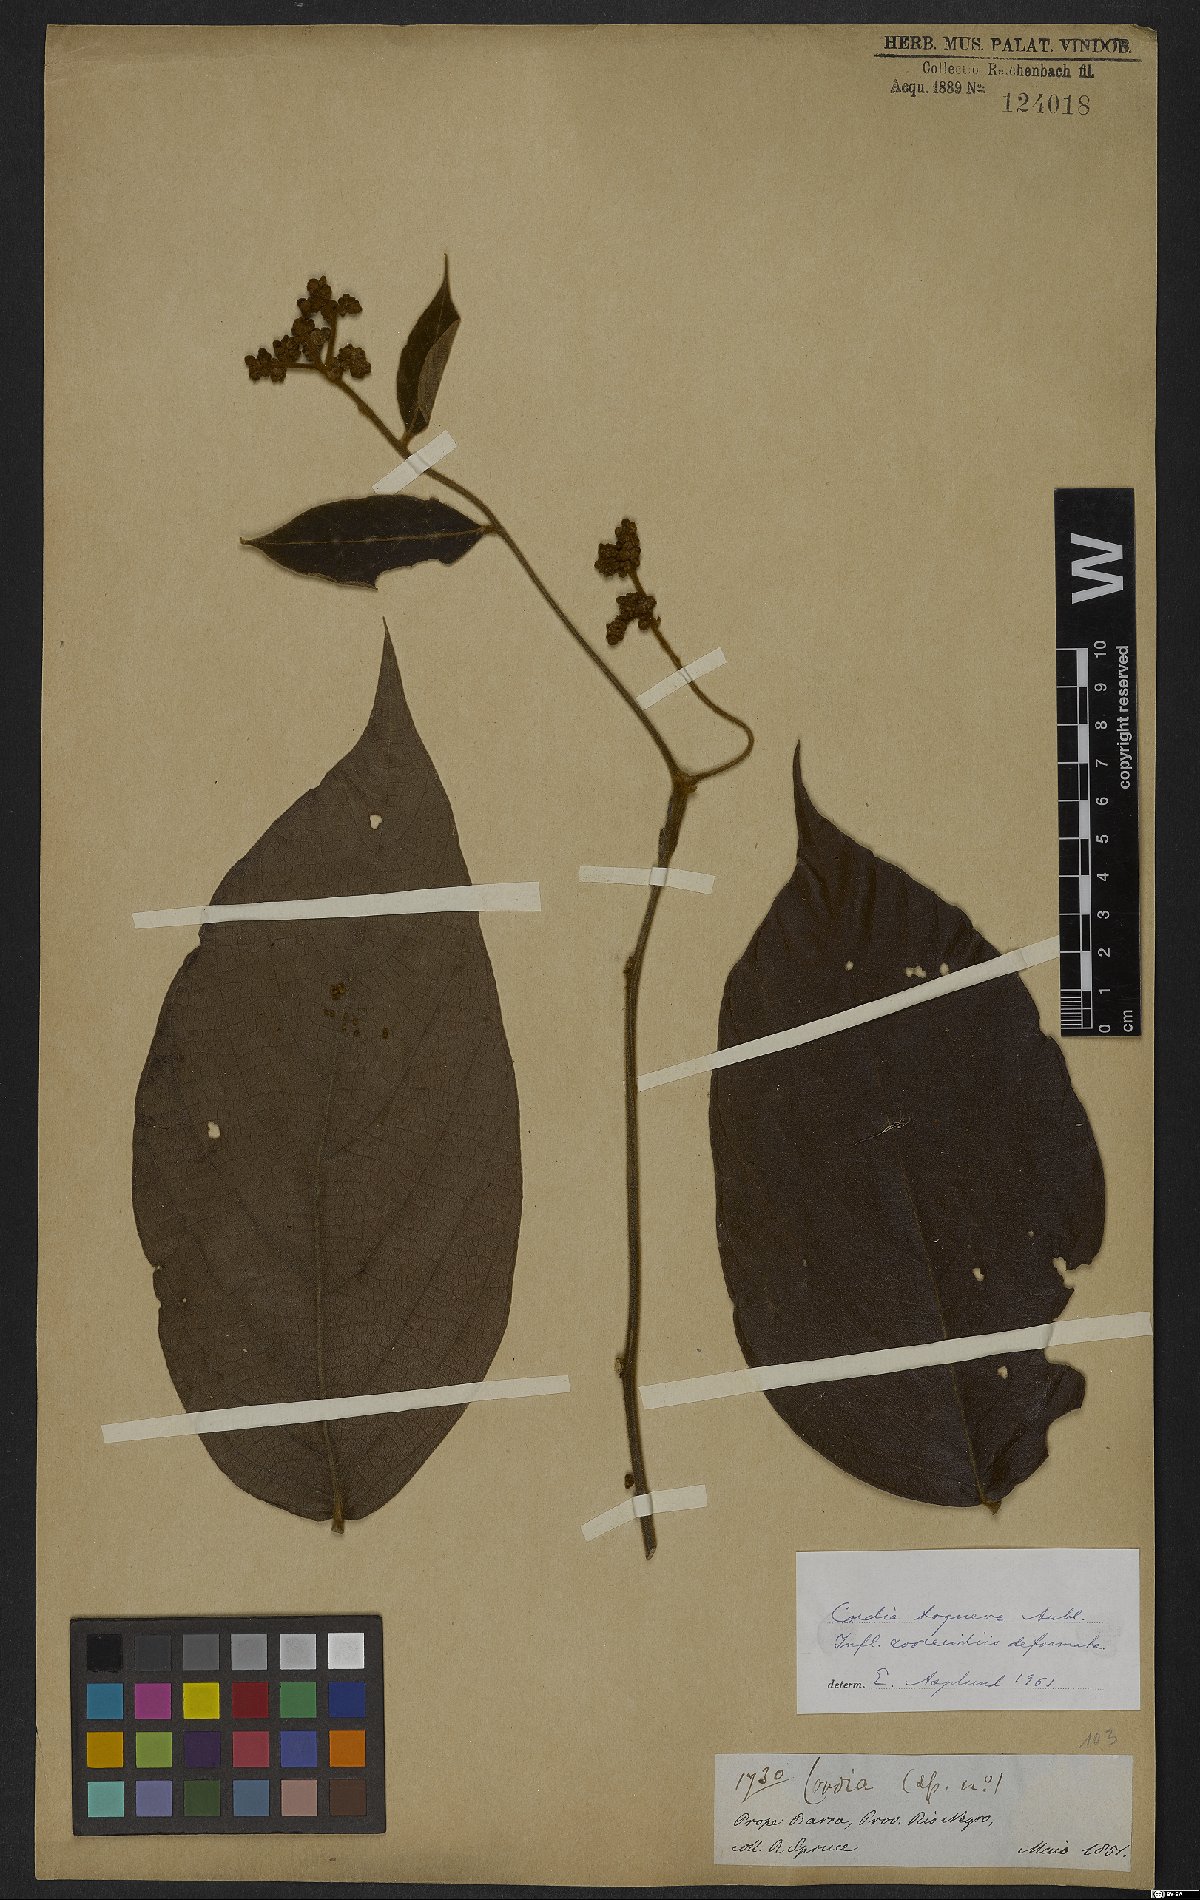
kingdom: Plantae
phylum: Tracheophyta
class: Magnoliopsida
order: Boraginales
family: Cordiaceae
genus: Cordia
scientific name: Cordia toqueve
